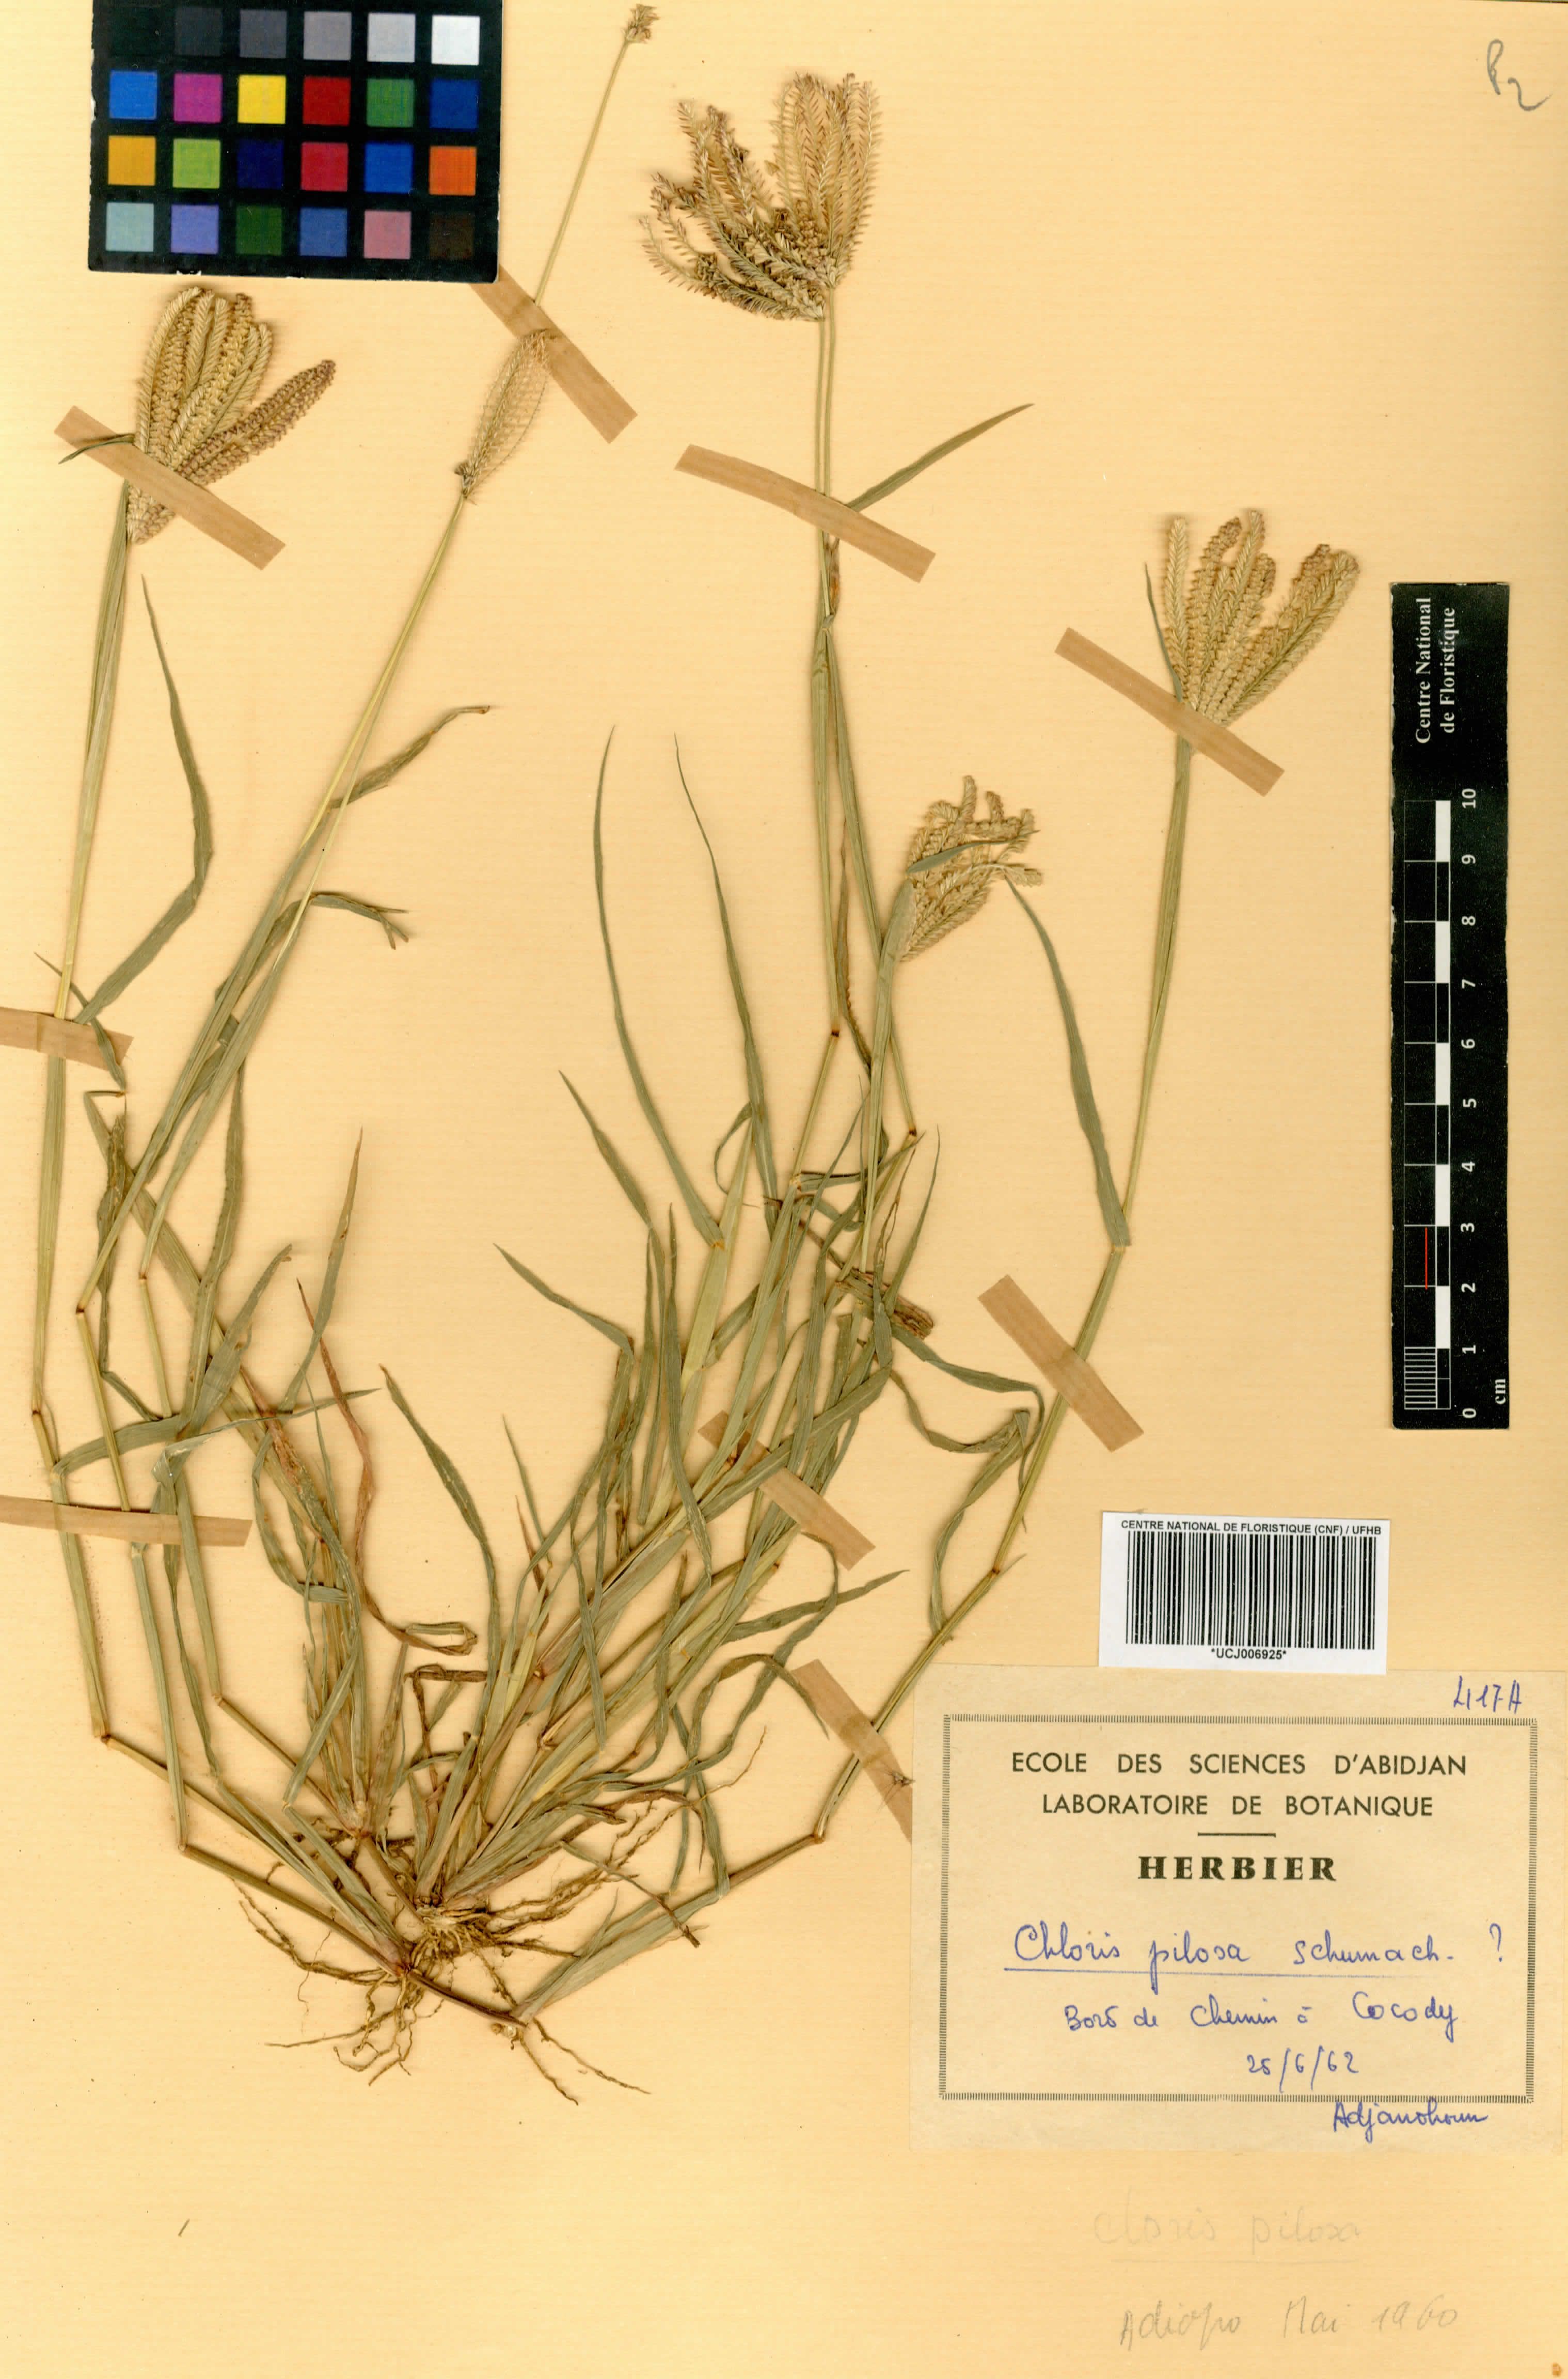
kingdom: Plantae
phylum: Tracheophyta
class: Liliopsida
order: Poales
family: Poaceae
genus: Chloris
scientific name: Chloris pilosa
